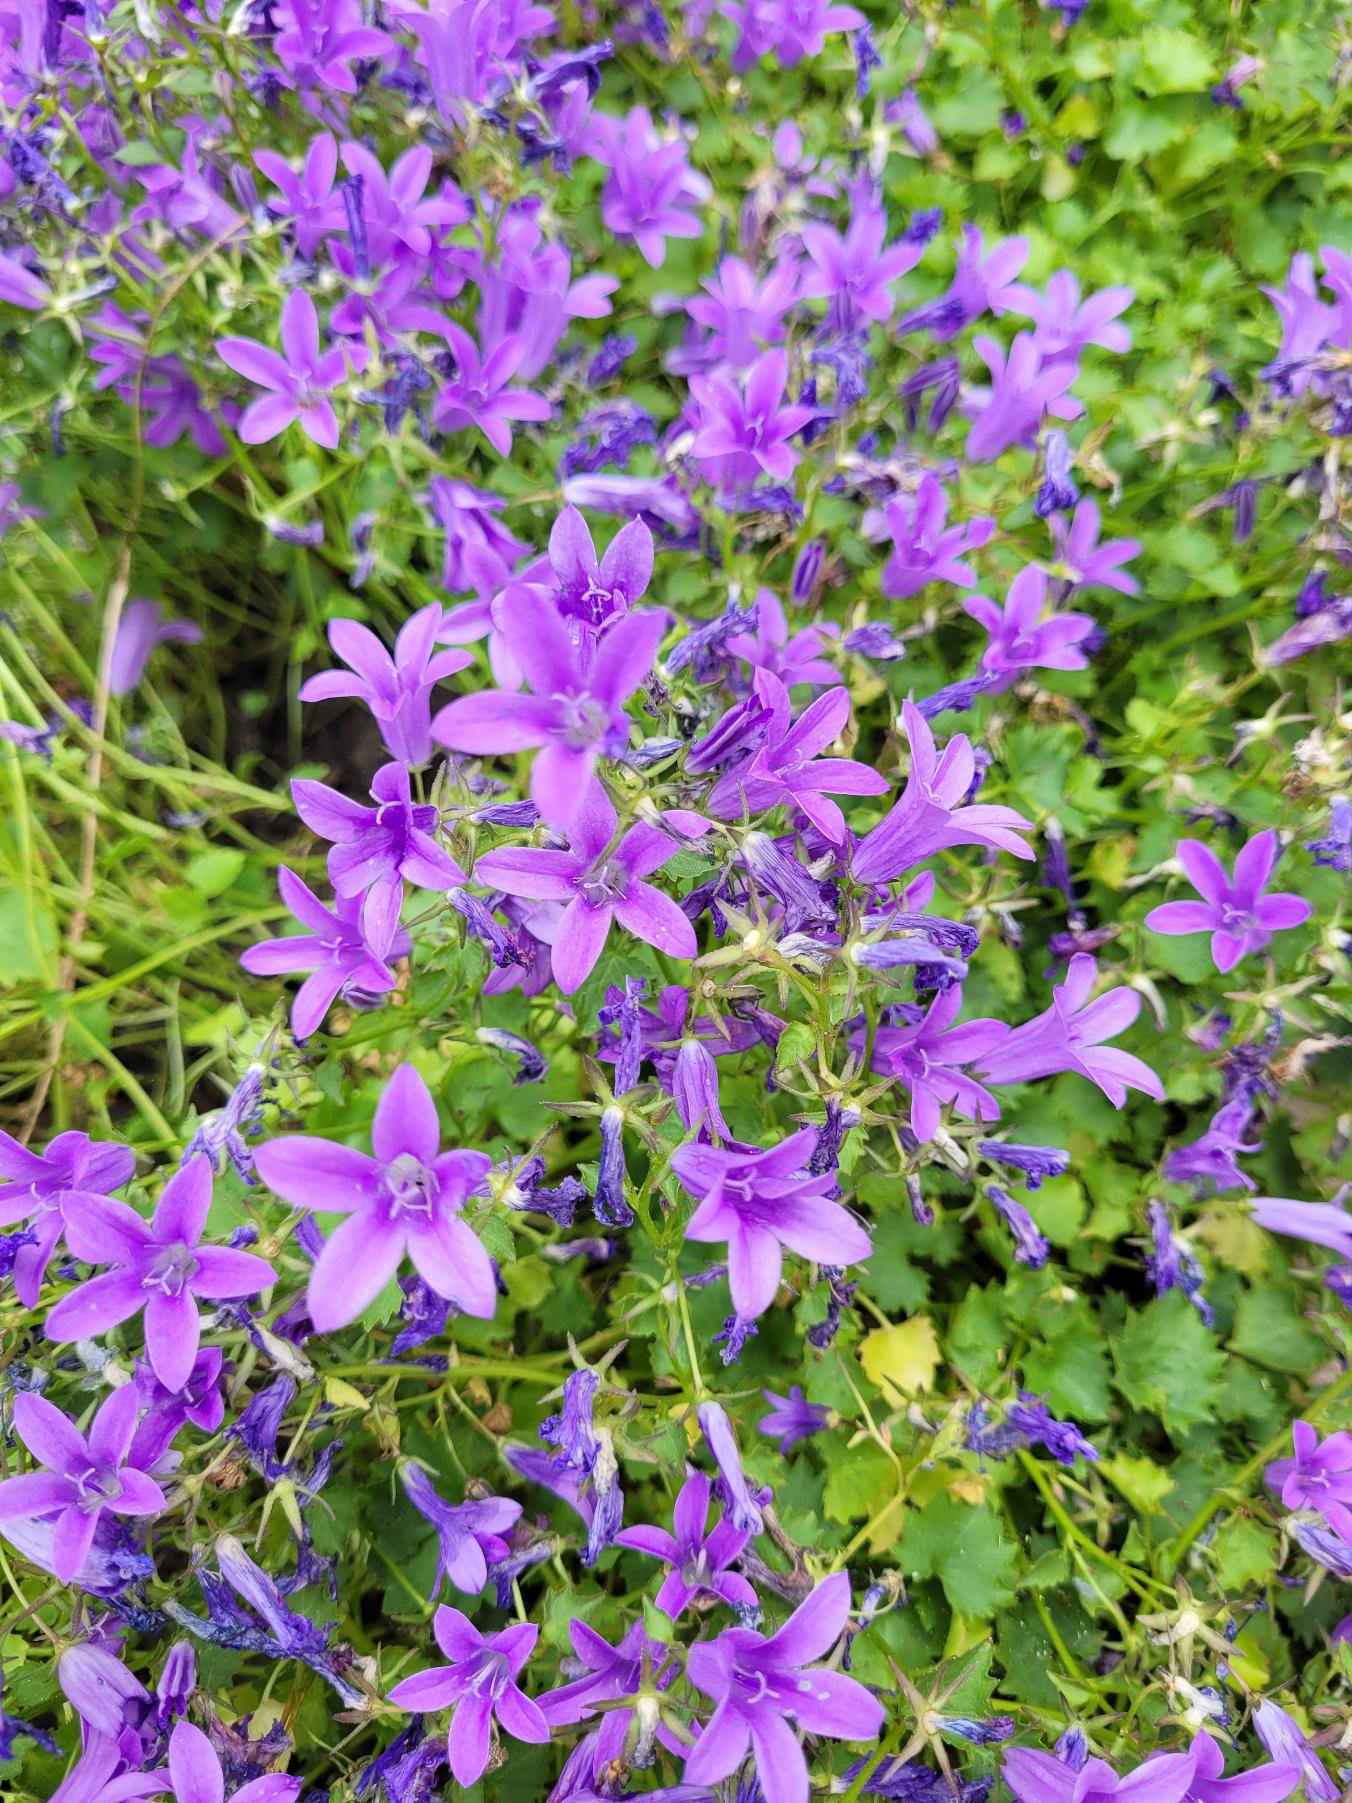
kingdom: Plantae
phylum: Tracheophyta
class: Magnoliopsida
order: Asterales
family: Campanulaceae
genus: Campanula
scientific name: Campanula poscharskyana
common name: Stjerne-klokke
